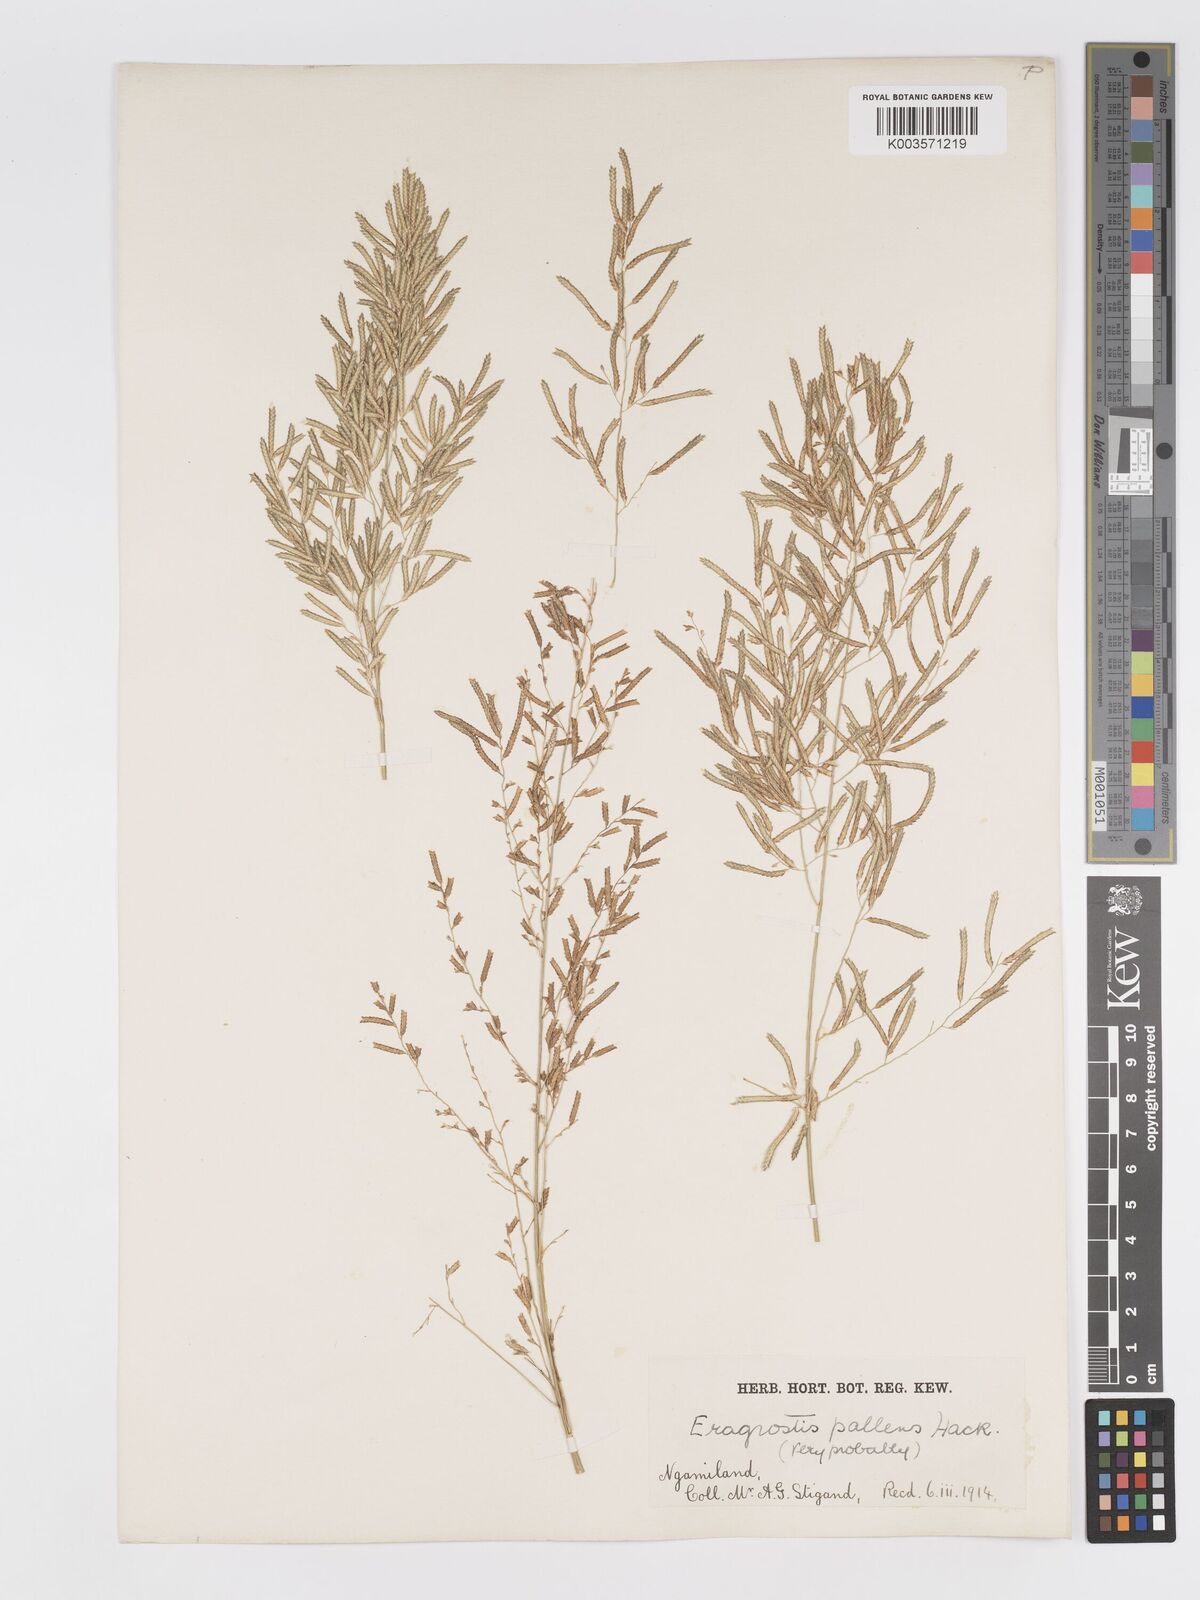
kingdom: Plantae
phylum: Tracheophyta
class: Liliopsida
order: Poales
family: Poaceae
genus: Eragrostis
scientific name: Eragrostis pallens
